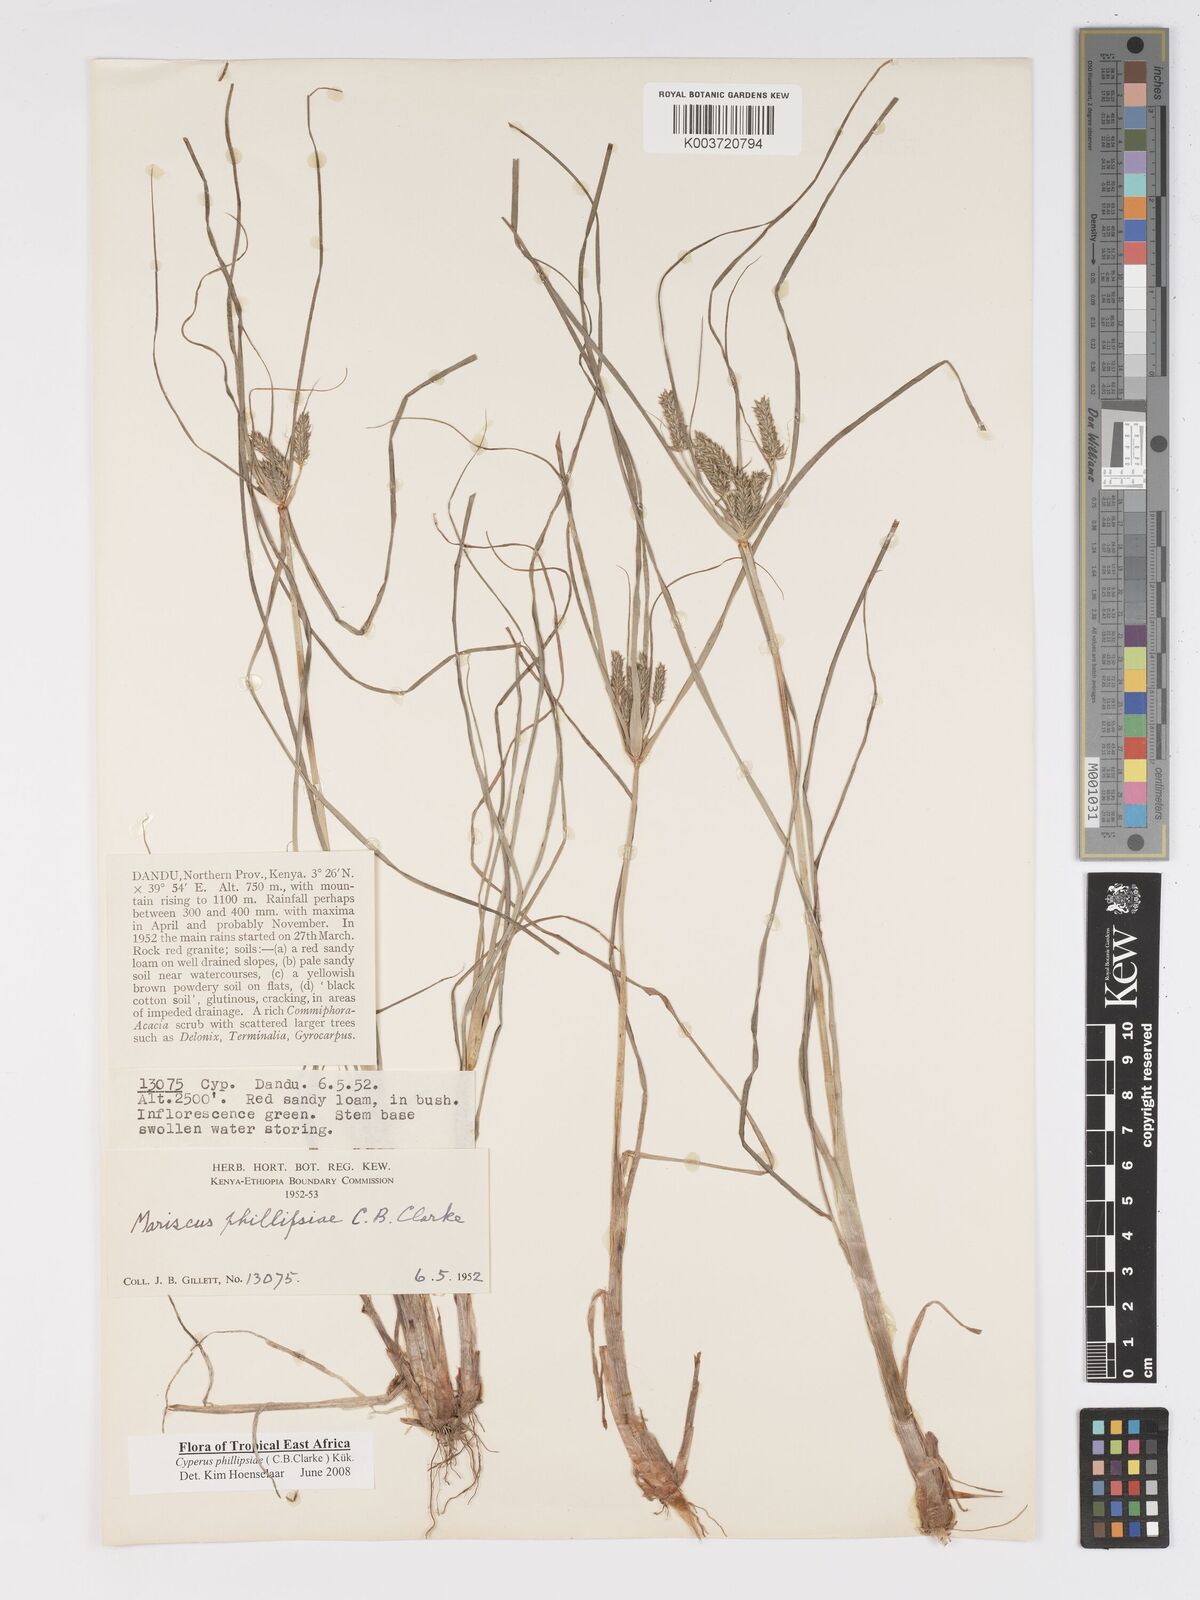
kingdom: Plantae
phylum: Tracheophyta
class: Liliopsida
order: Poales
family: Cyperaceae
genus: Cyperus
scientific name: Cyperus phillipsiae
